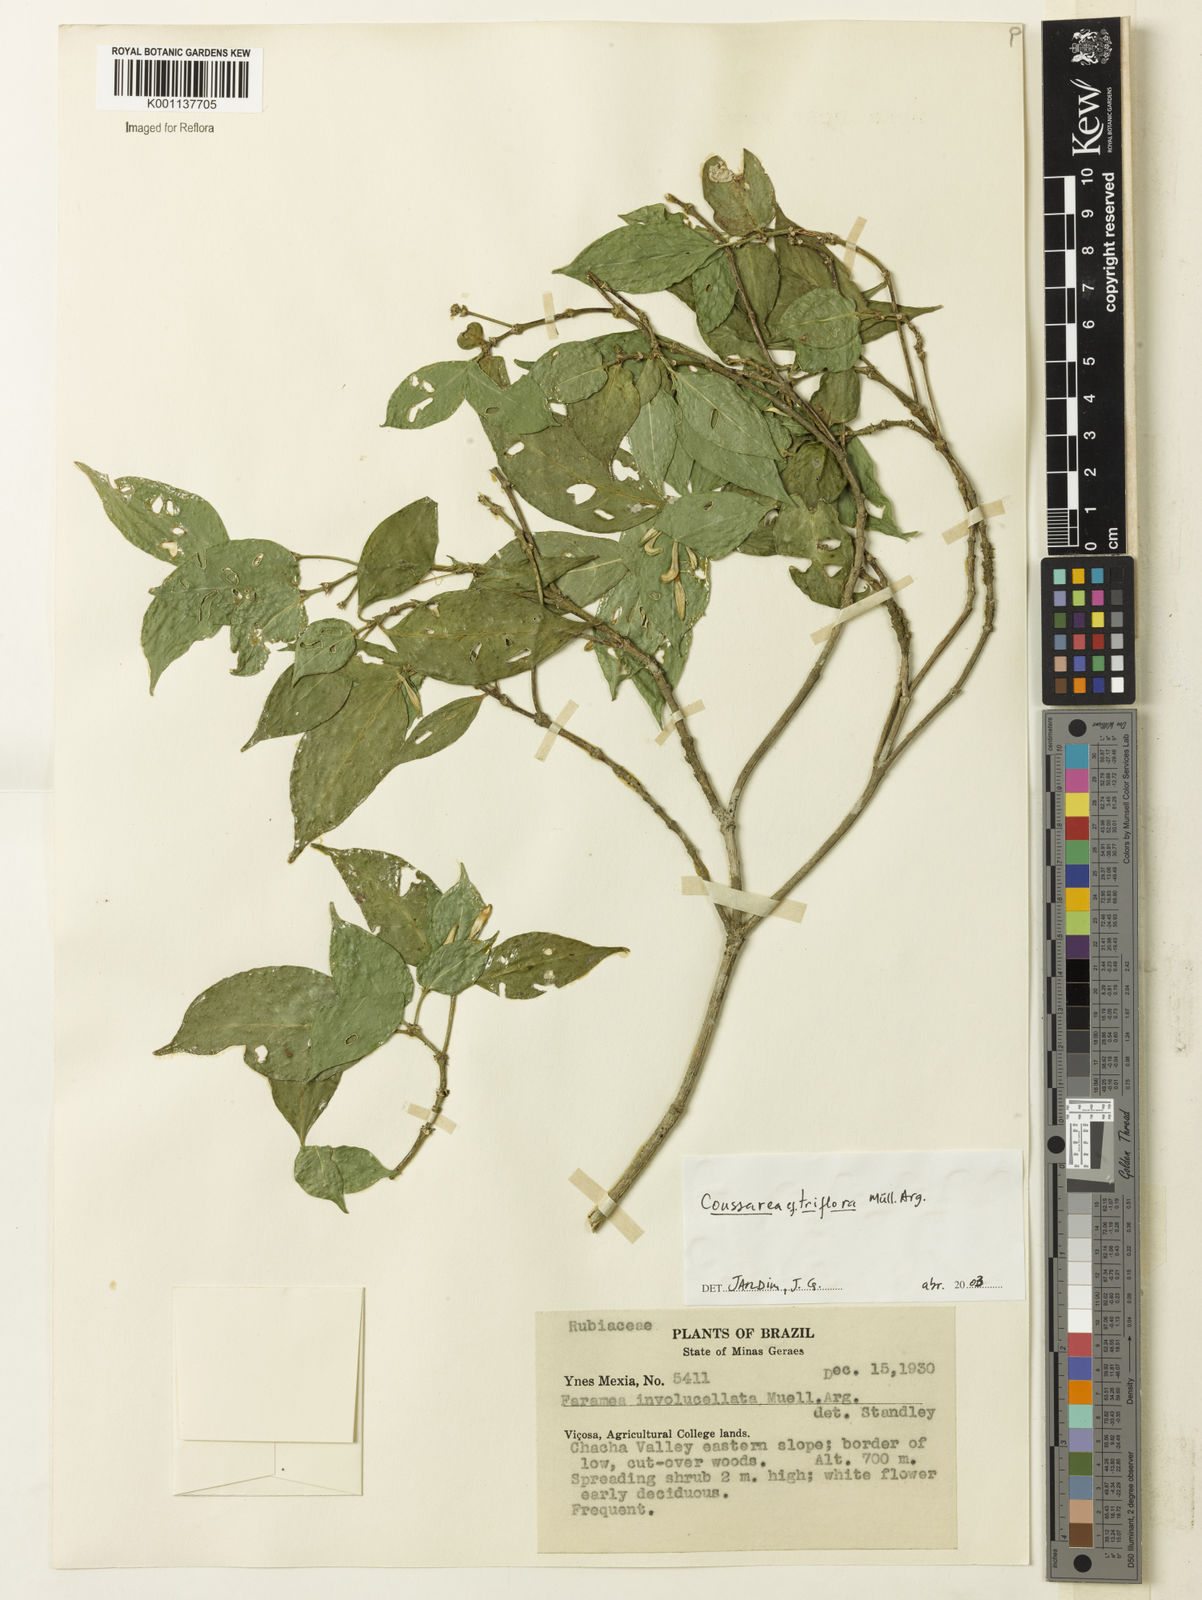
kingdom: Plantae
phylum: Tracheophyta
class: Magnoliopsida
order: Gentianales
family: Rubiaceae
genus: Coussarea
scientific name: Coussarea
